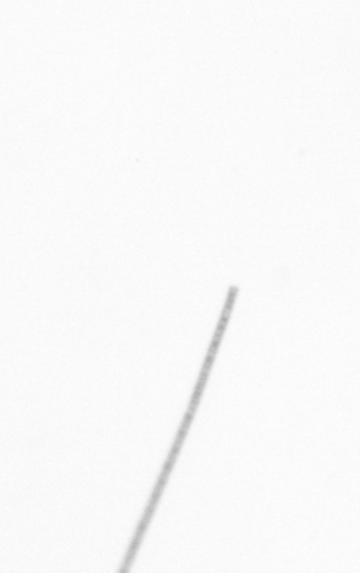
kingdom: Chromista
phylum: Ochrophyta
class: Bacillariophyceae
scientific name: Bacillariophyceae
